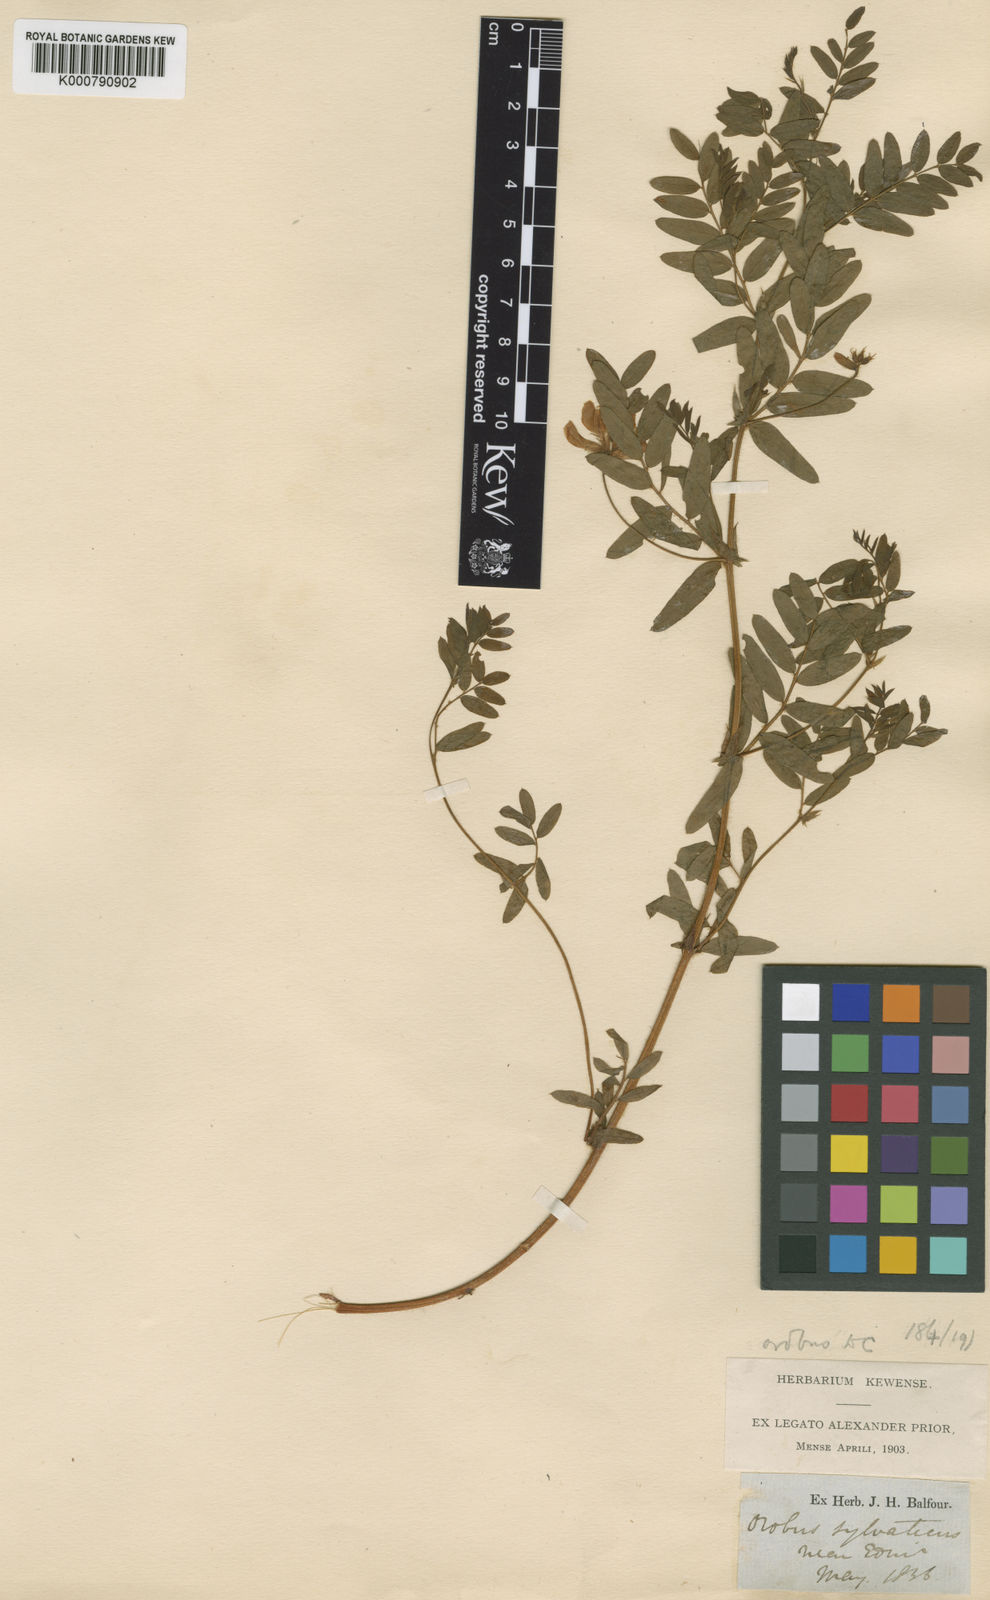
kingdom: Plantae
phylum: Tracheophyta
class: Magnoliopsida
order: Fabales
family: Fabaceae
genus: Vicia
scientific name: Vicia orobus
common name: Wood bitter-vetch
